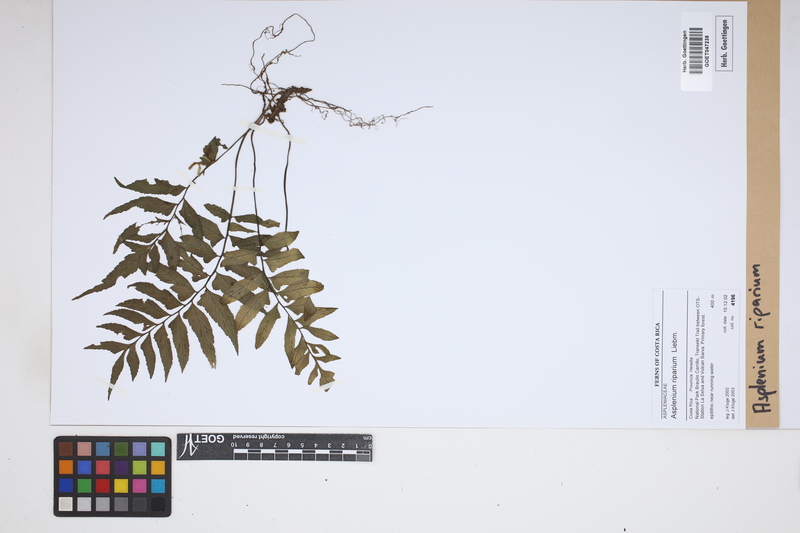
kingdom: Plantae
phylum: Tracheophyta
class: Polypodiopsida
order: Polypodiales
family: Aspleniaceae
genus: Hymenasplenium
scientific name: Hymenasplenium riparium
